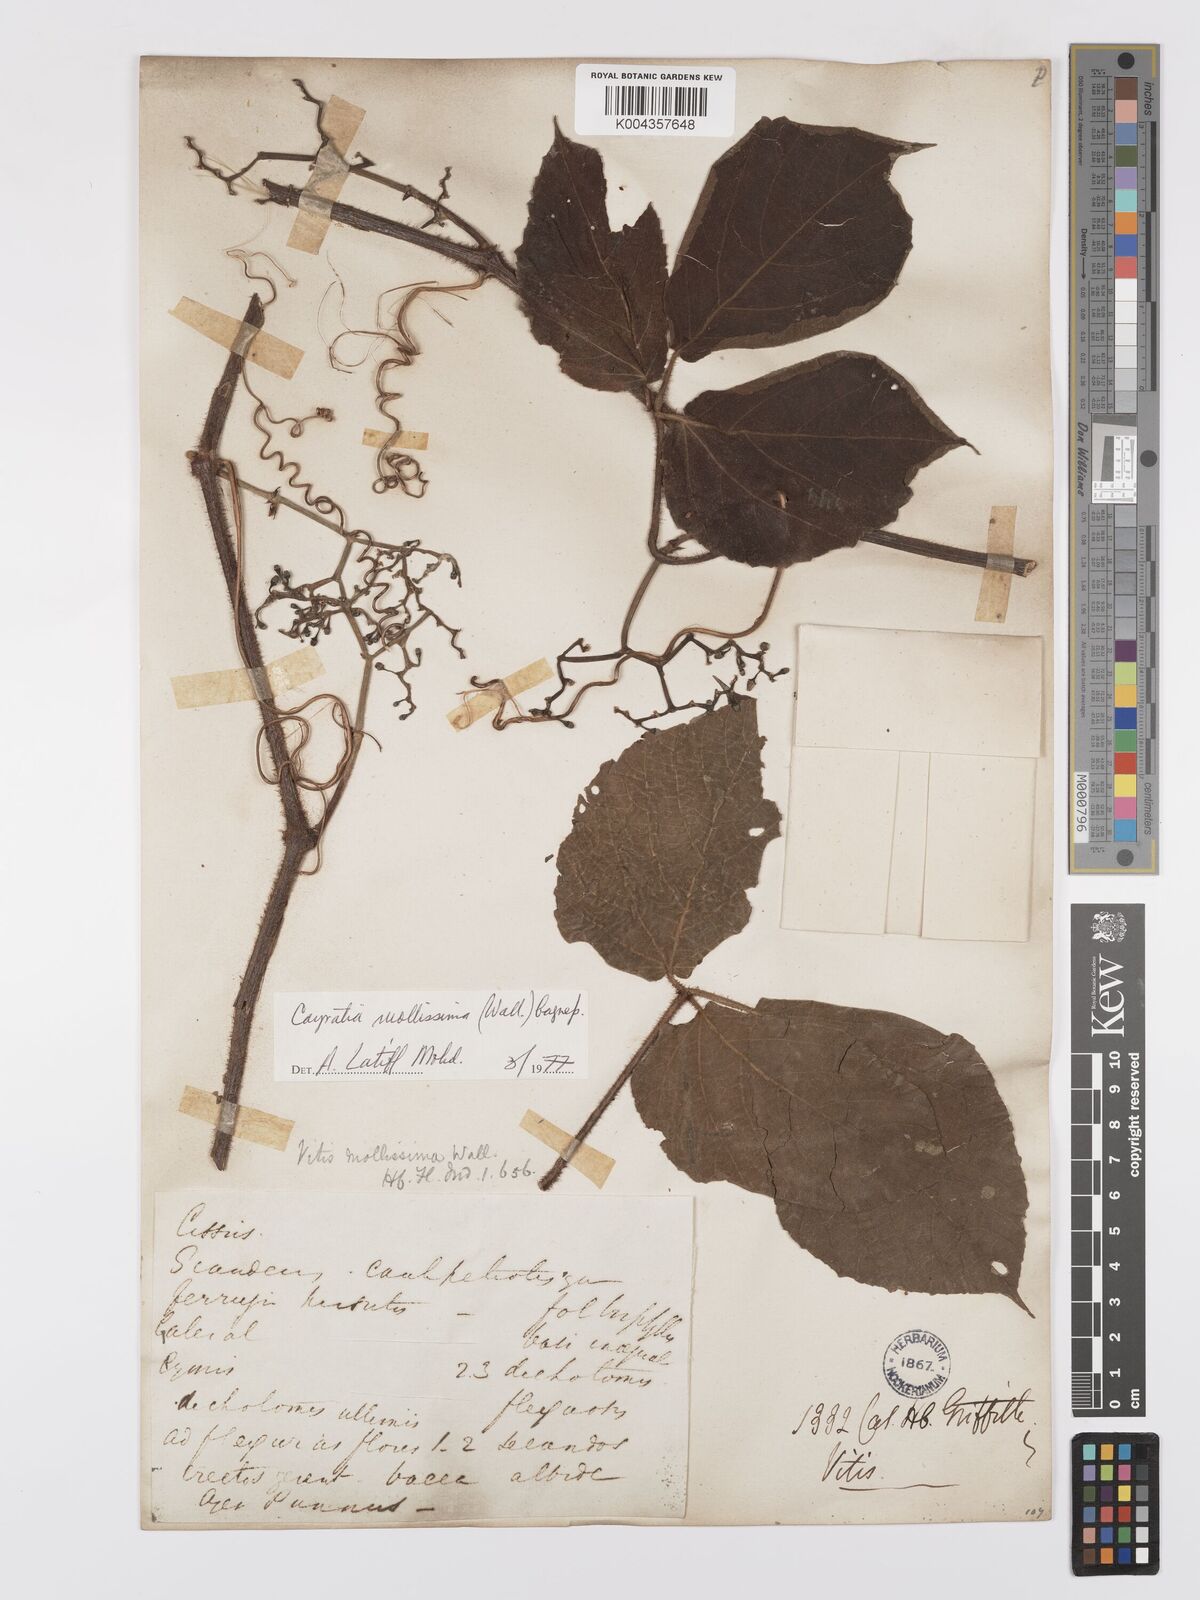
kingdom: Plantae
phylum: Tracheophyta
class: Magnoliopsida
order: Vitales
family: Vitaceae
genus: Cayratia
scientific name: Cayratia mollissima
